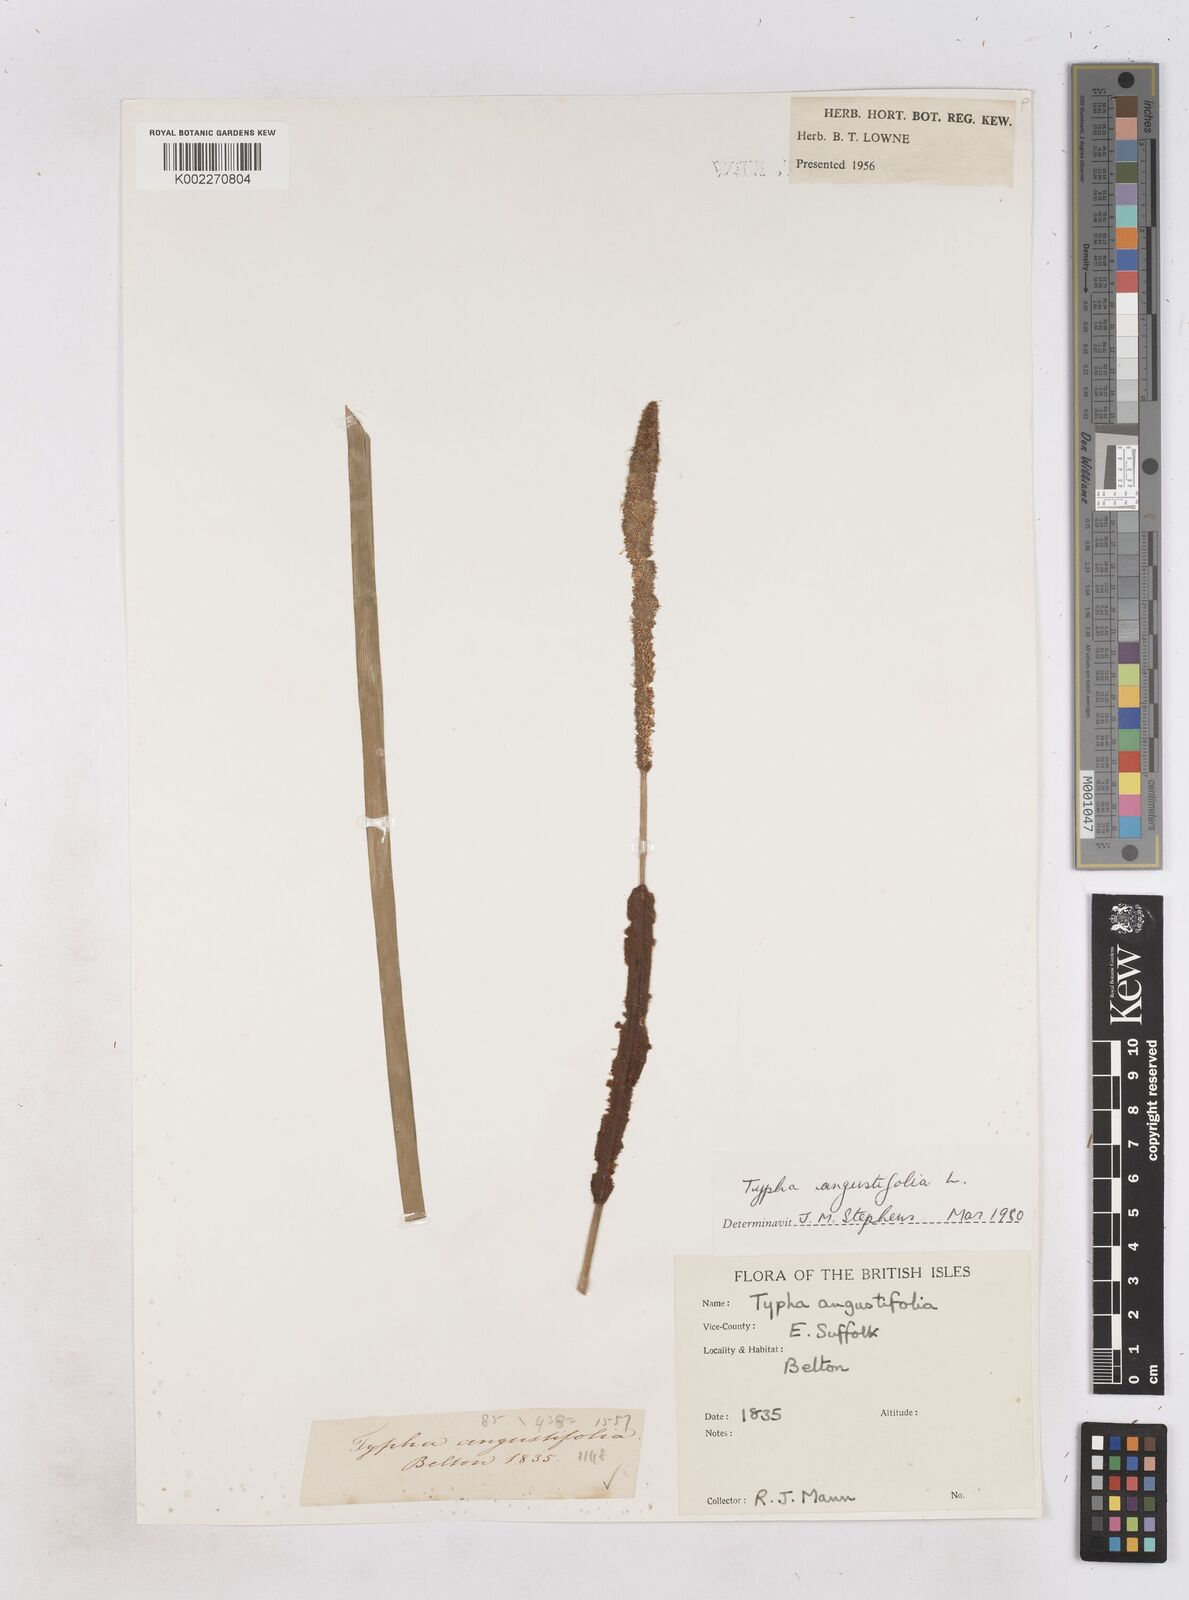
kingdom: Plantae
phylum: Tracheophyta
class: Liliopsida
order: Poales
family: Typhaceae
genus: Typha
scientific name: Typha angustifolia
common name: Lesser bulrush
